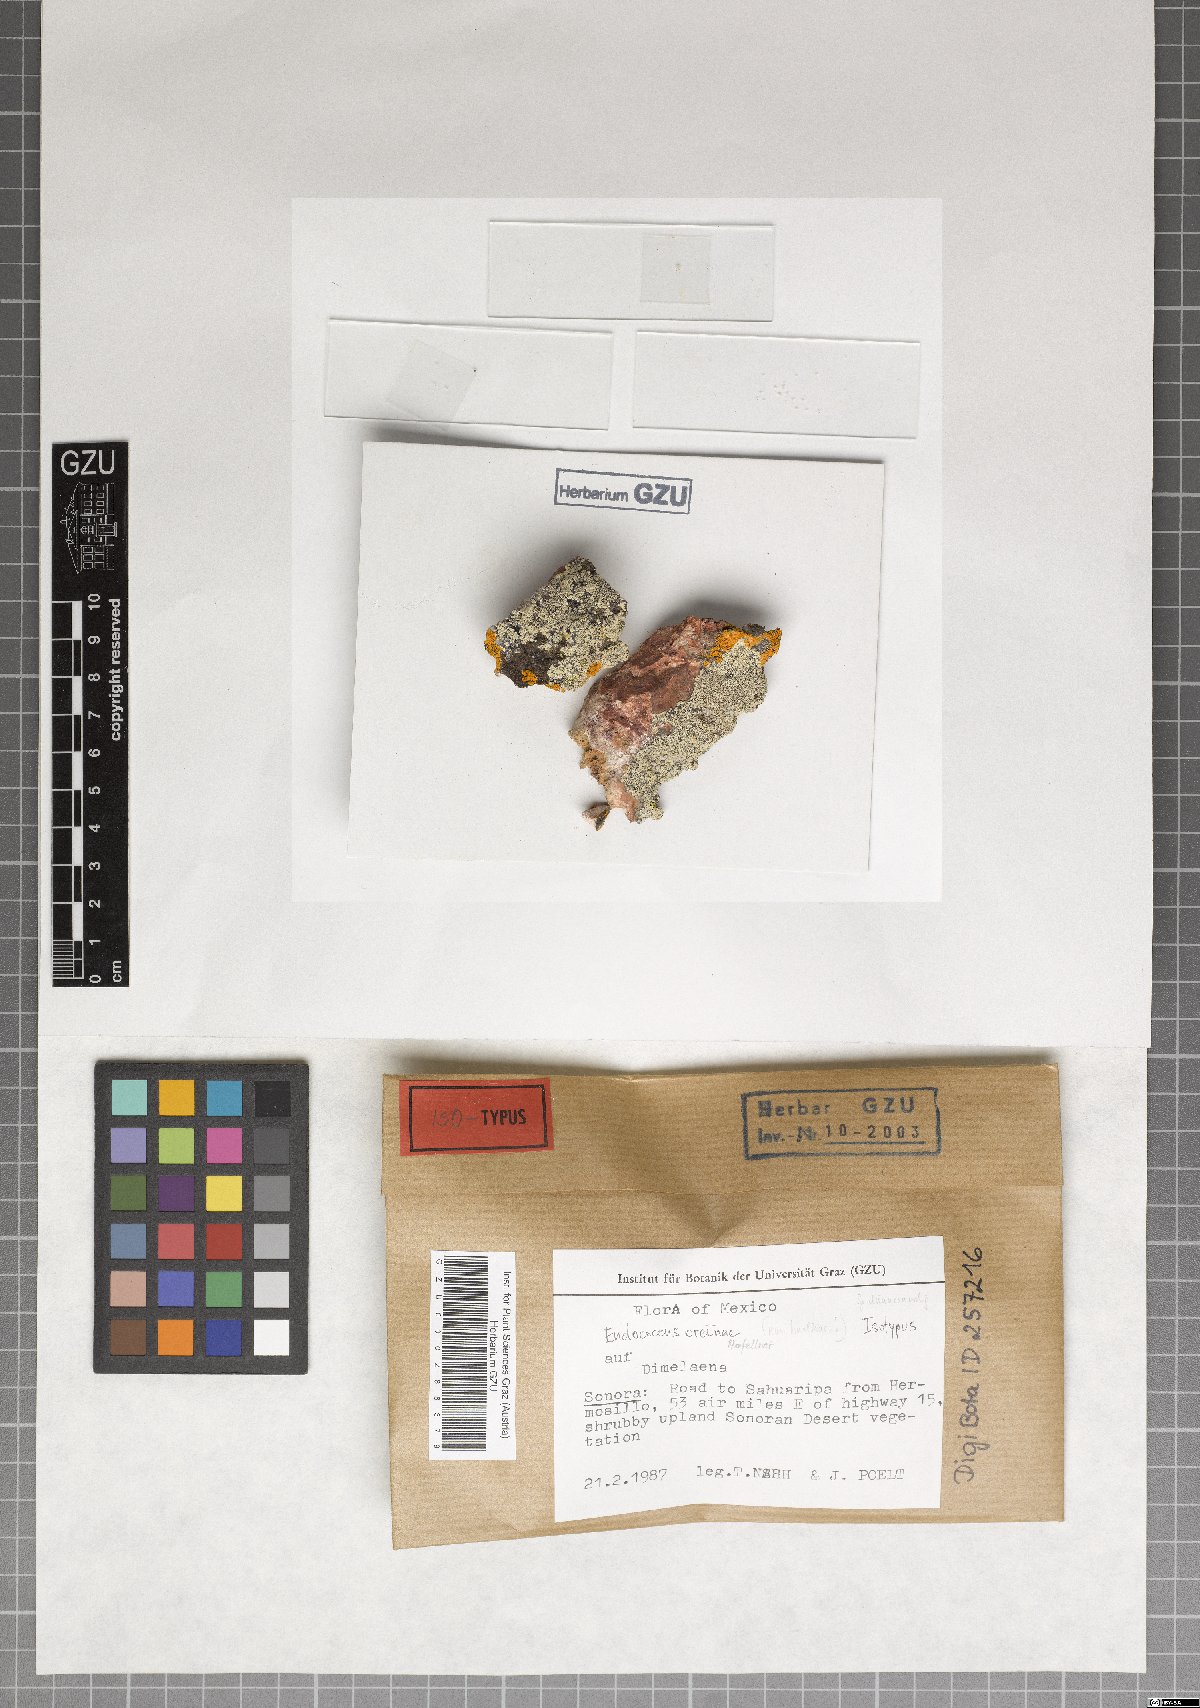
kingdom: Fungi
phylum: Ascomycota
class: Dothideomycetes
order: Dothideales
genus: Endococcus
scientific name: Endococcus oreinae
